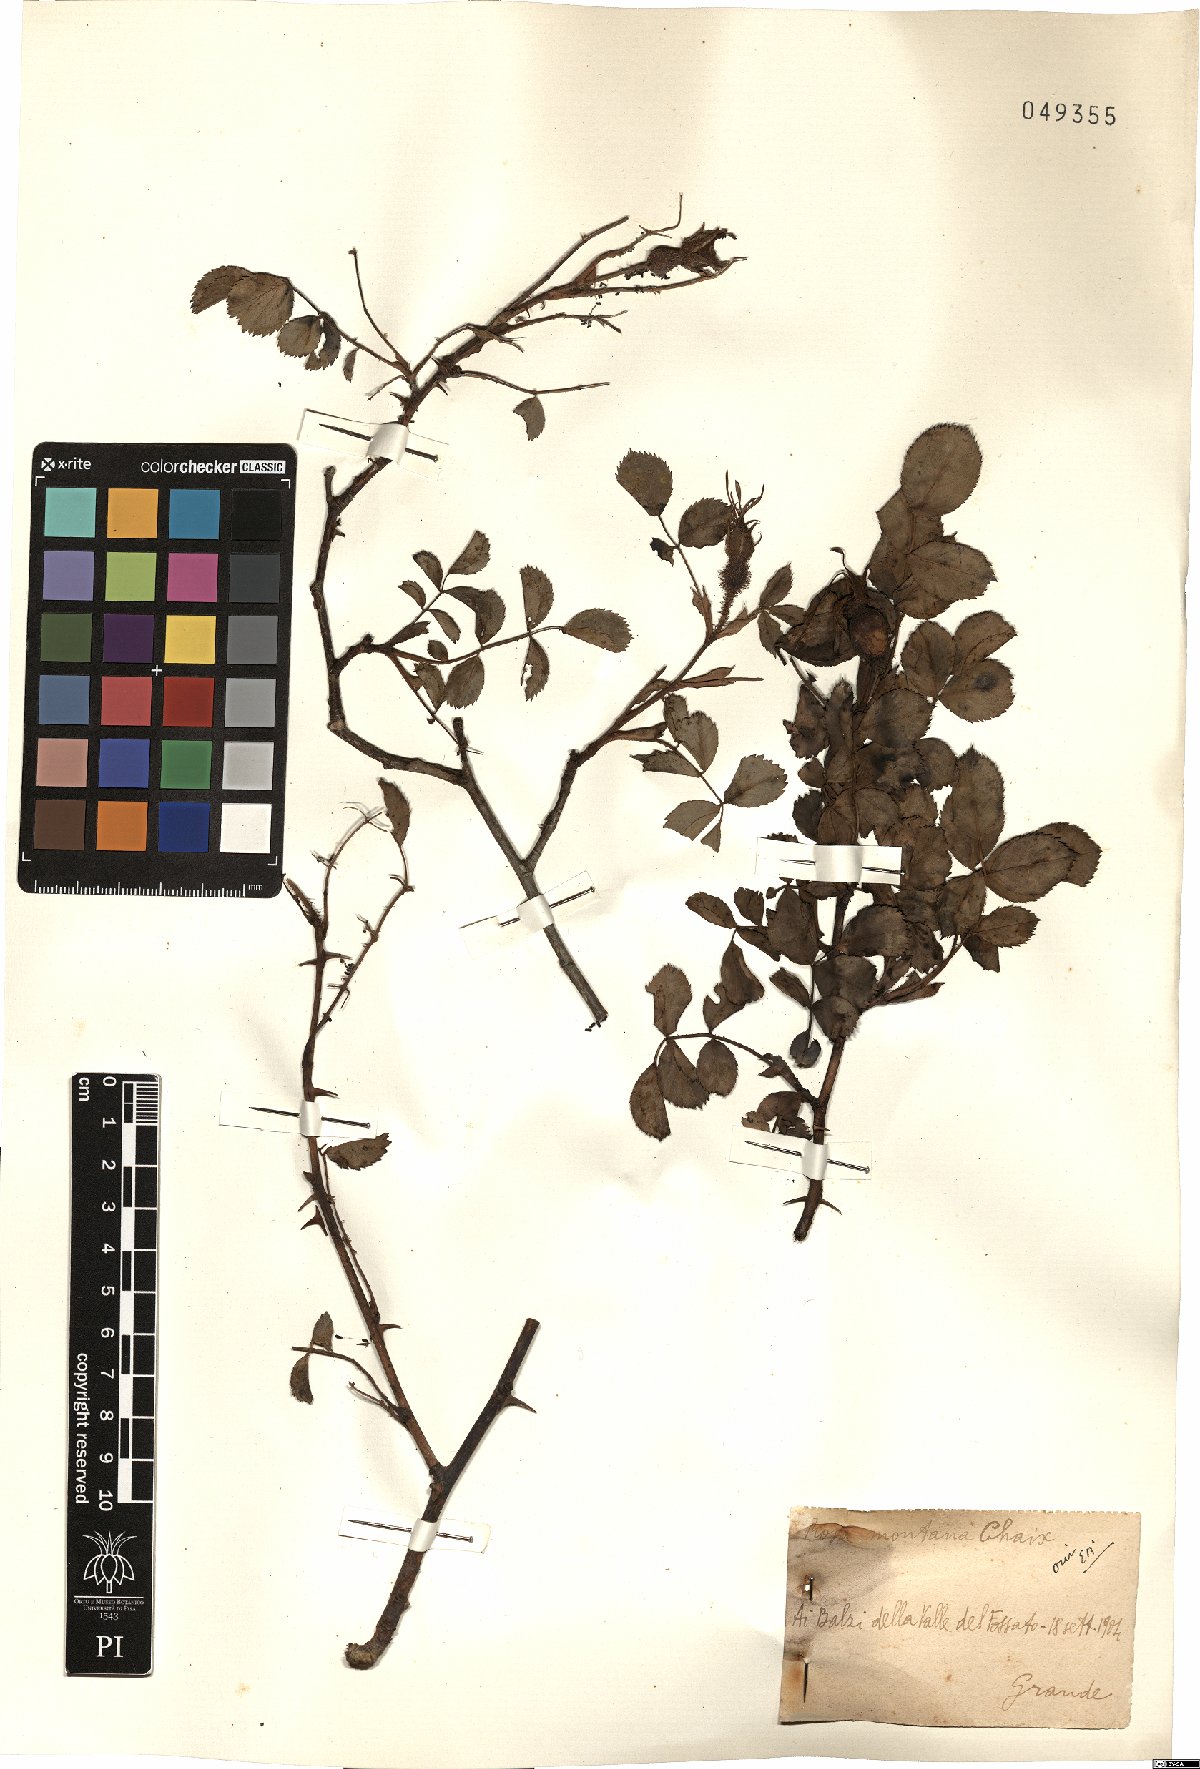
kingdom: Plantae
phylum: Tracheophyta
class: Magnoliopsida
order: Rosales
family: Rosaceae
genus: Rosa
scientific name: Rosa montana
